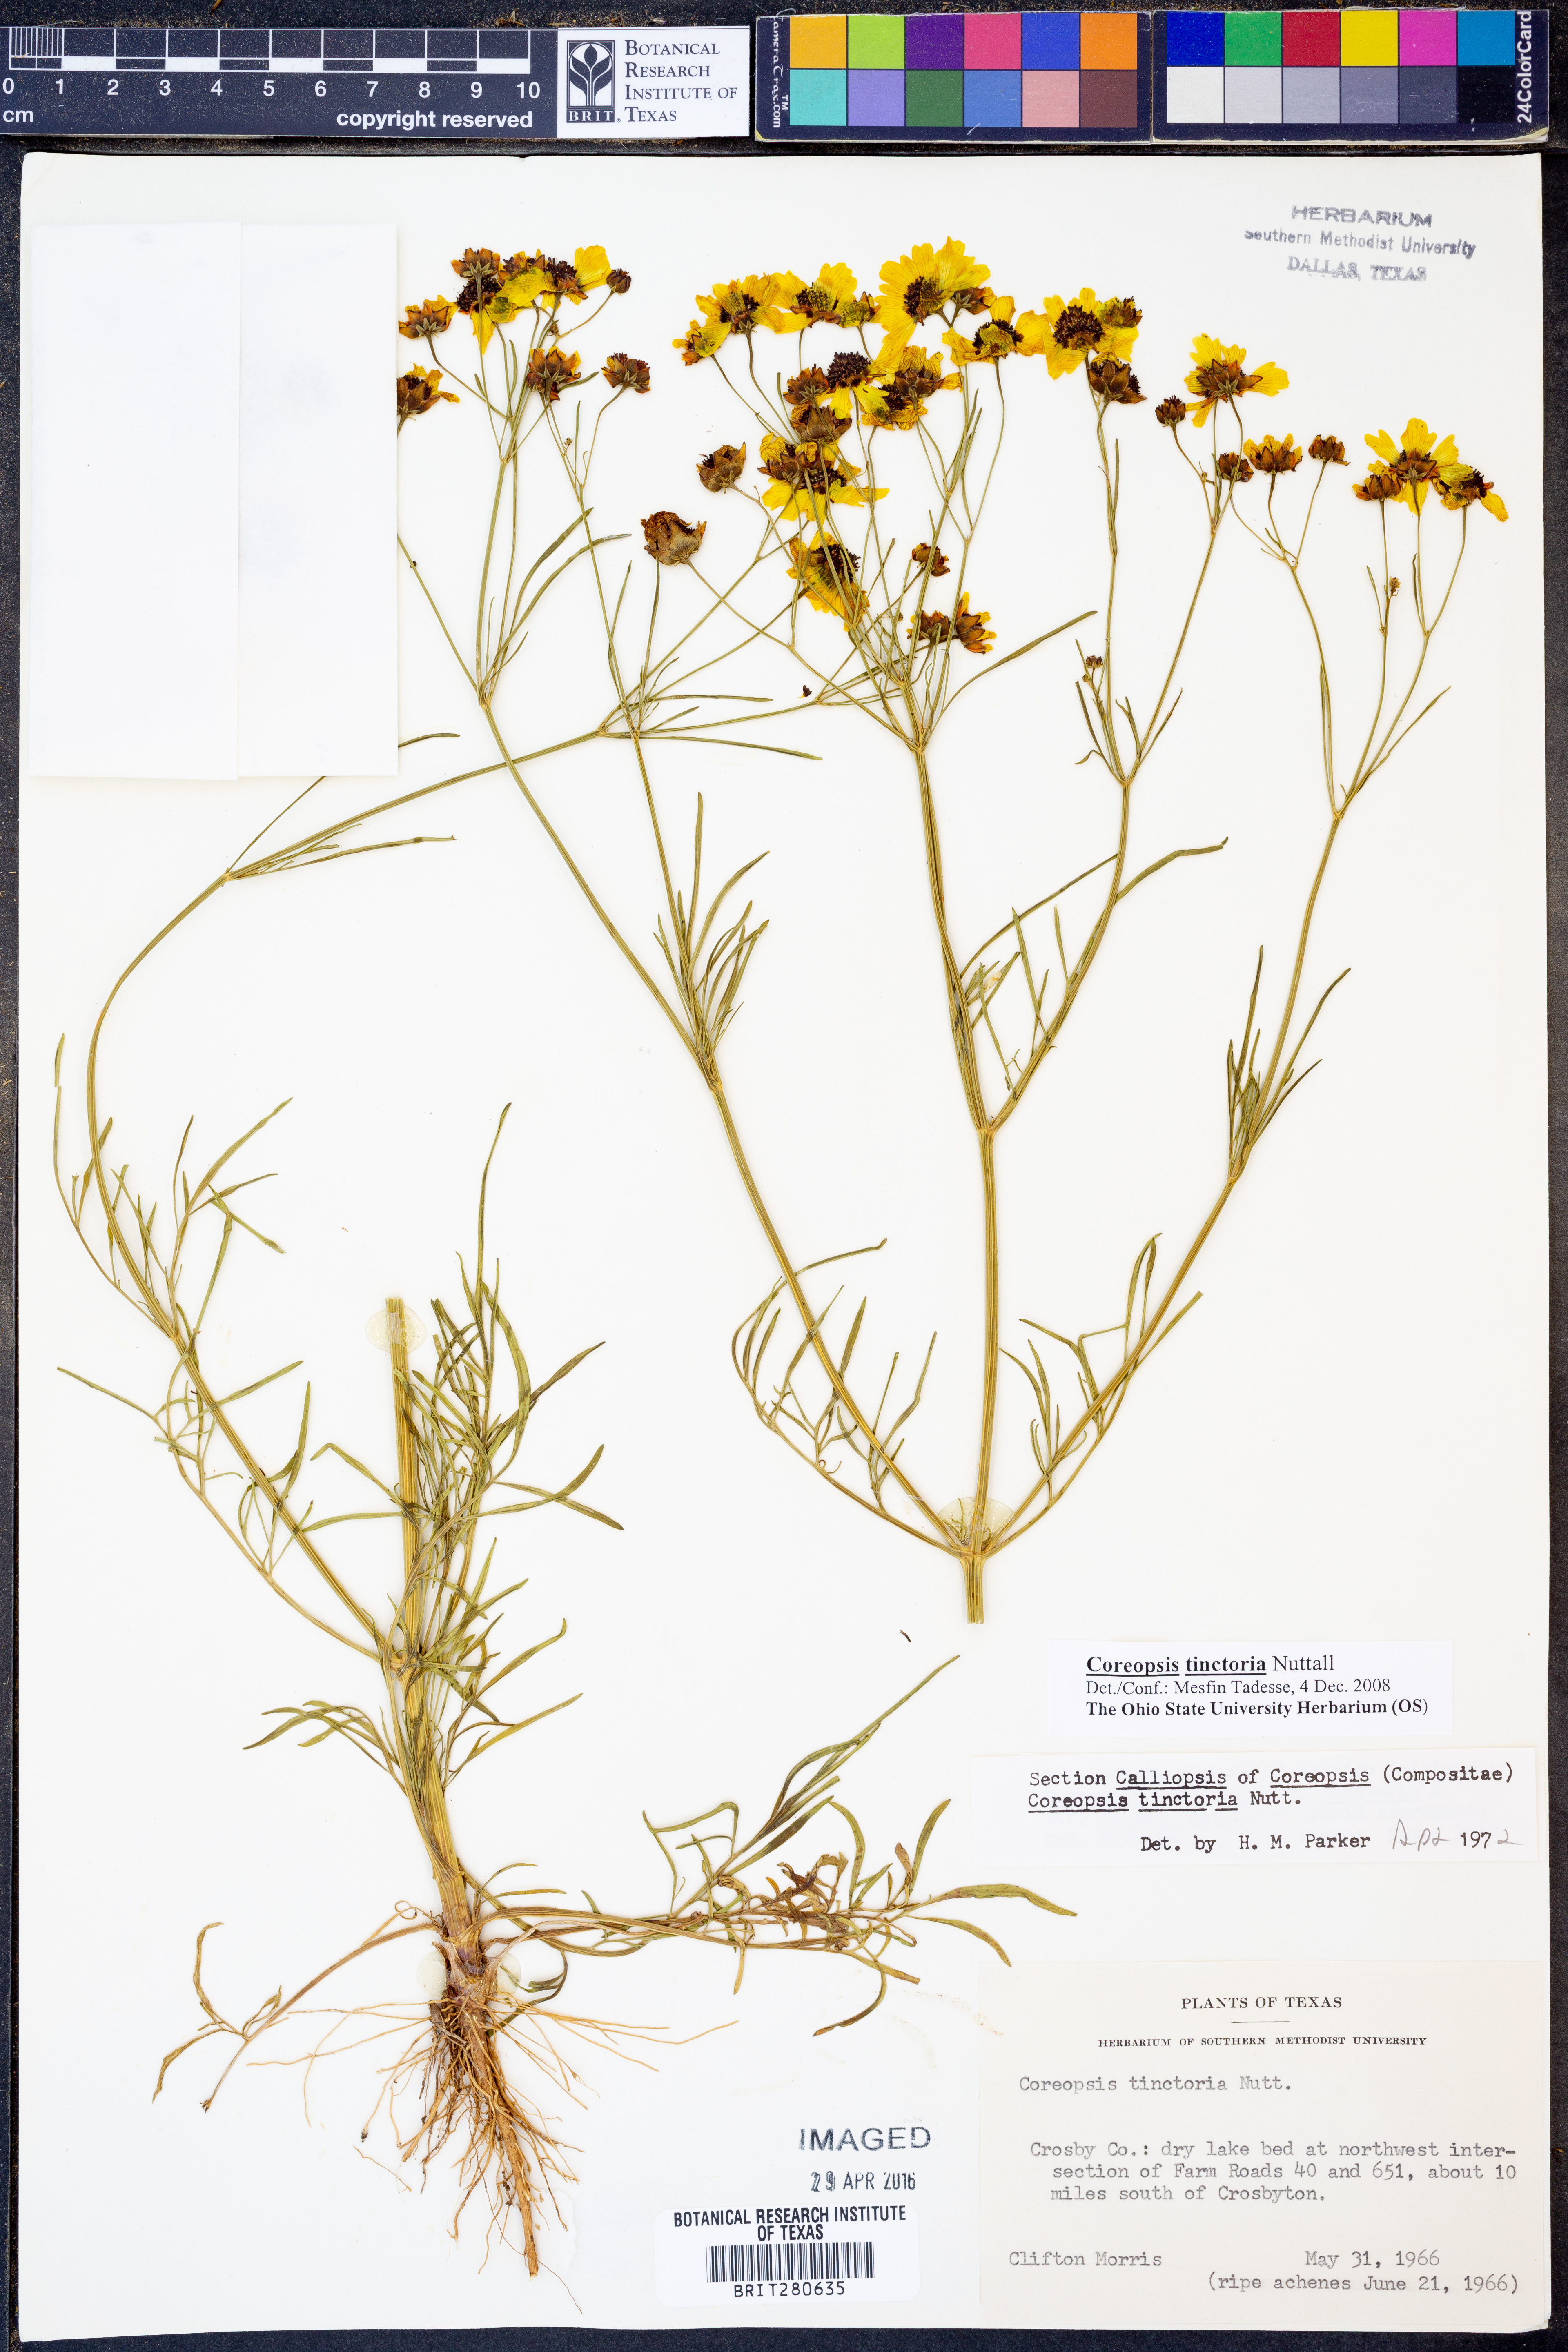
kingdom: Plantae
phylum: Tracheophyta
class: Magnoliopsida
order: Asterales
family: Asteraceae
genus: Coreopsis
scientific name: Coreopsis tinctoria
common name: Garden tickseed
